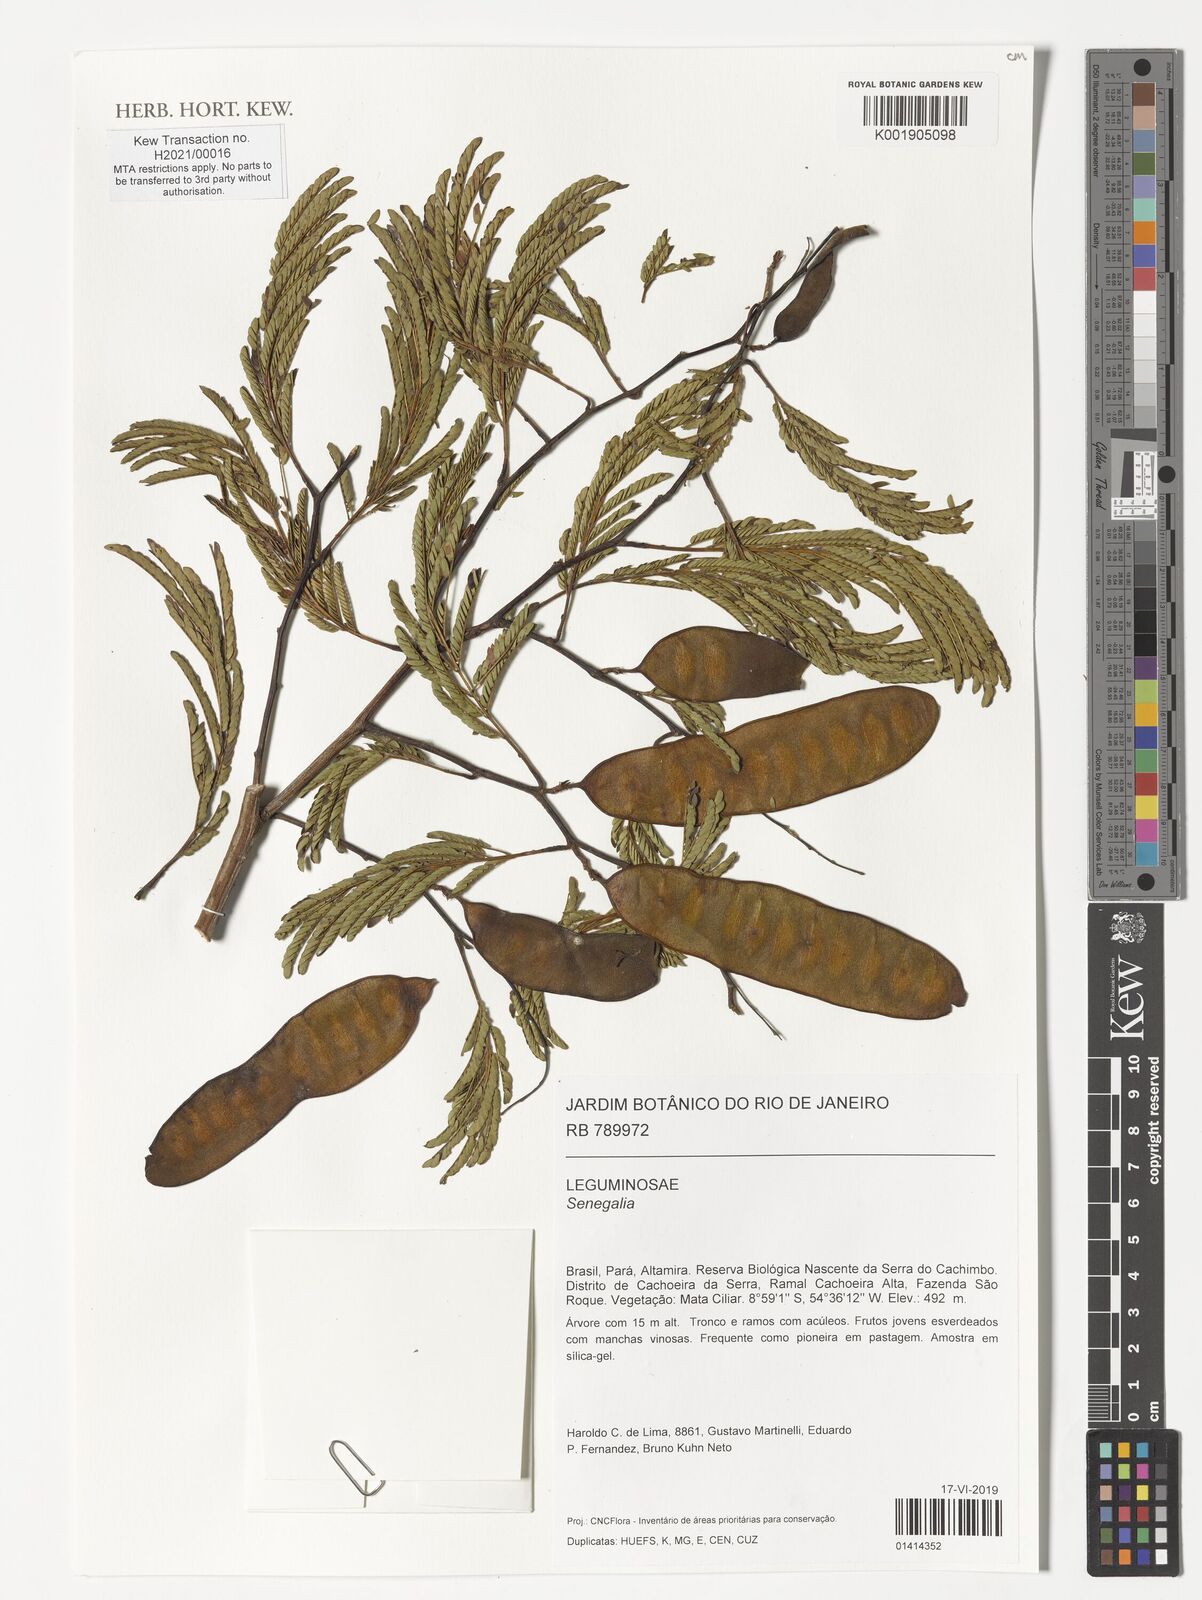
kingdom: Plantae
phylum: Tracheophyta
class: Magnoliopsida
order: Fabales
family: Fabaceae
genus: Senegalia
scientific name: Senegalia
